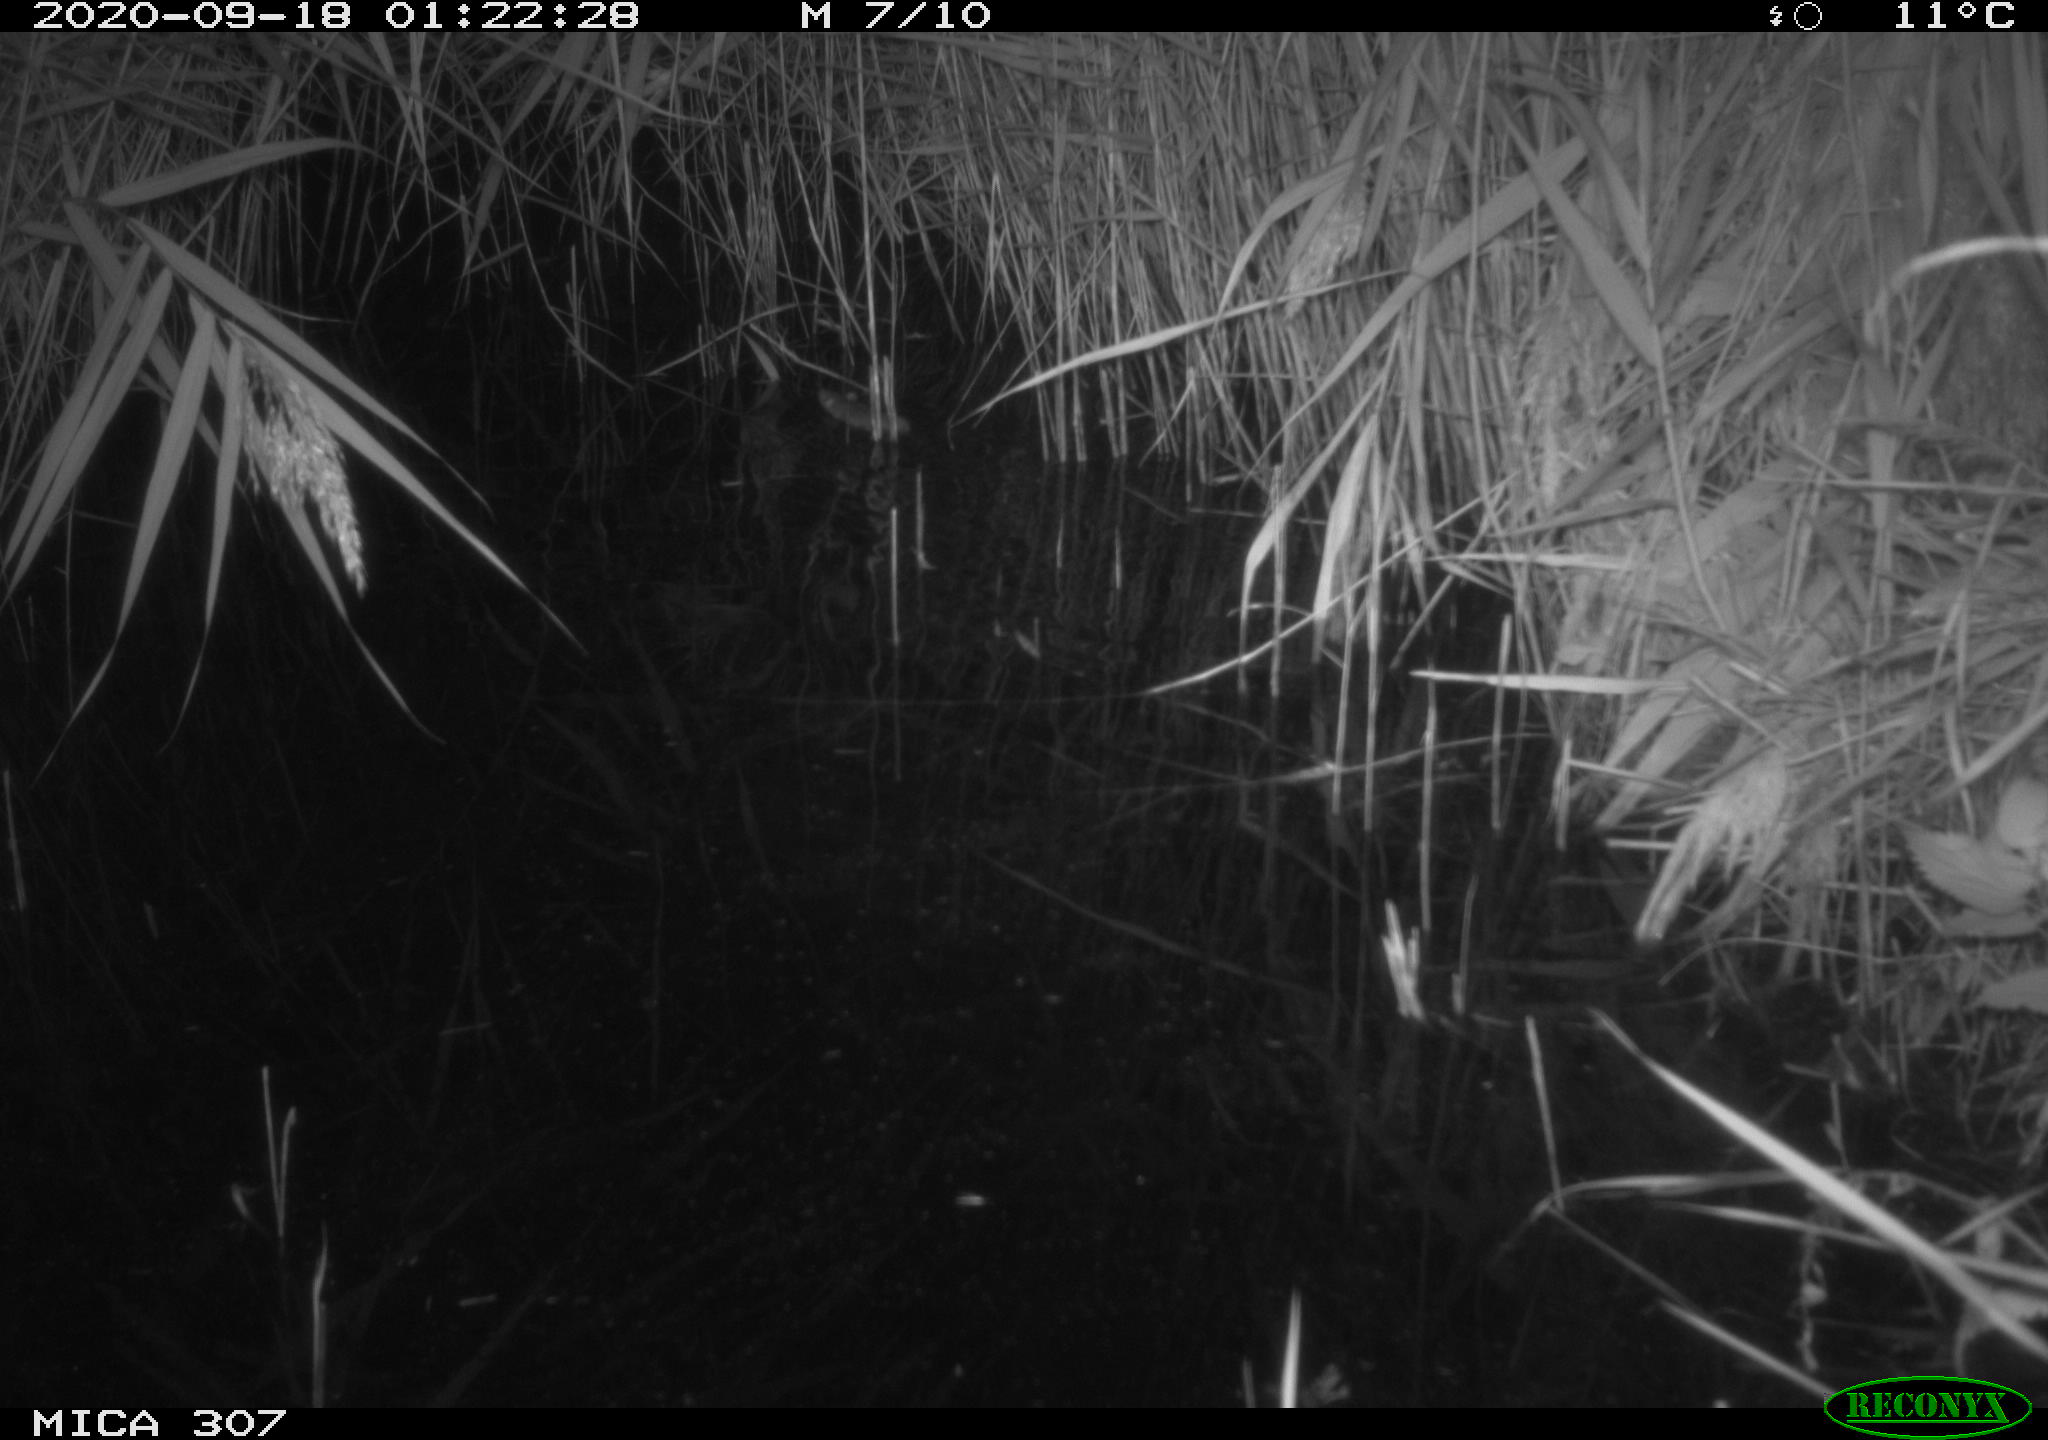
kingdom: Animalia
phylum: Chordata
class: Mammalia
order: Rodentia
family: Muridae
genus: Rattus
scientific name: Rattus norvegicus
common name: Brown rat
